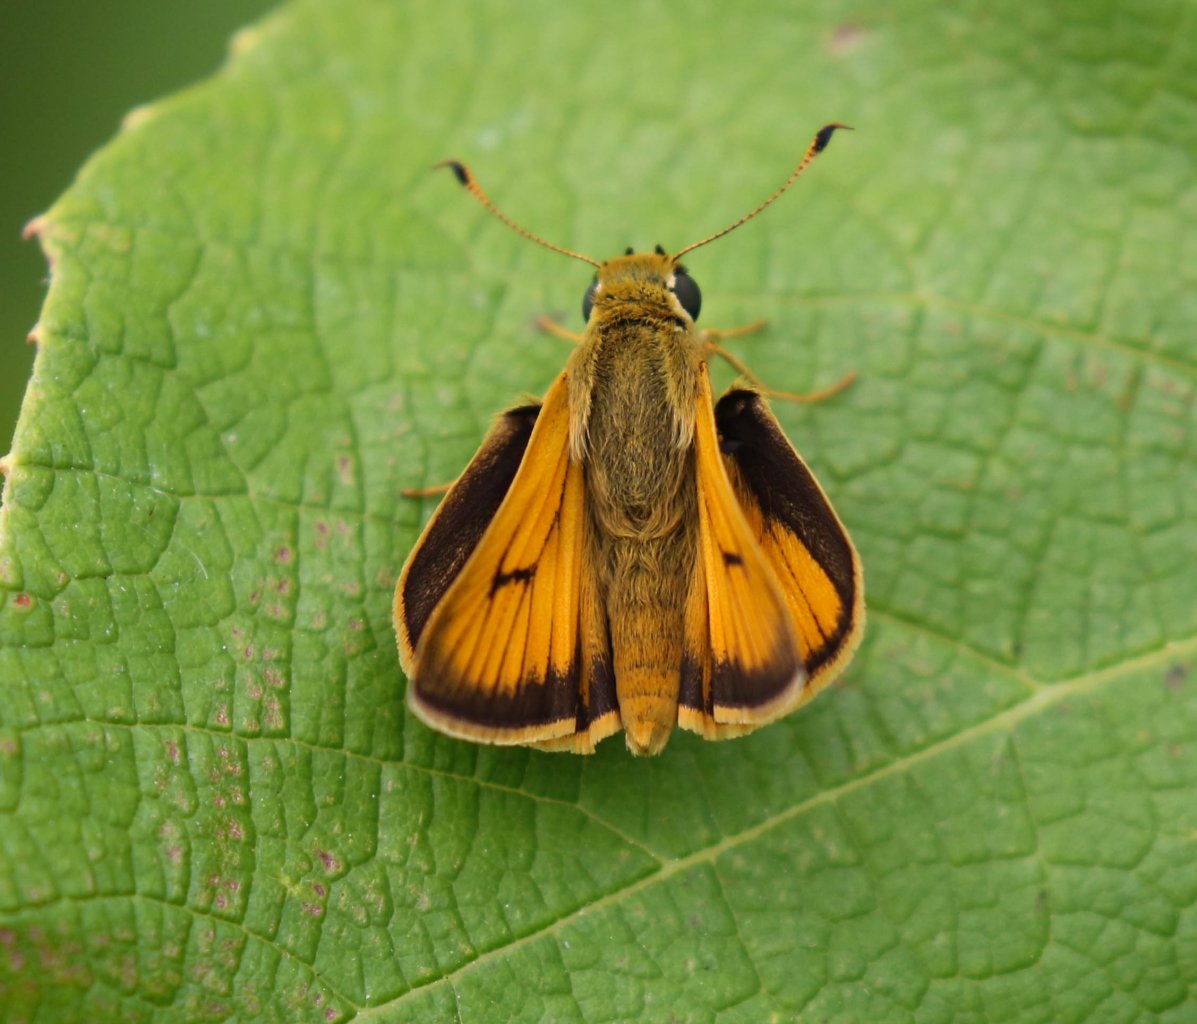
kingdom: Animalia
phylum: Arthropoda
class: Insecta
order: Lepidoptera
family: Hesperiidae
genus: Atrytone
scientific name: Atrytone delaware
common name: Delaware Skipper
